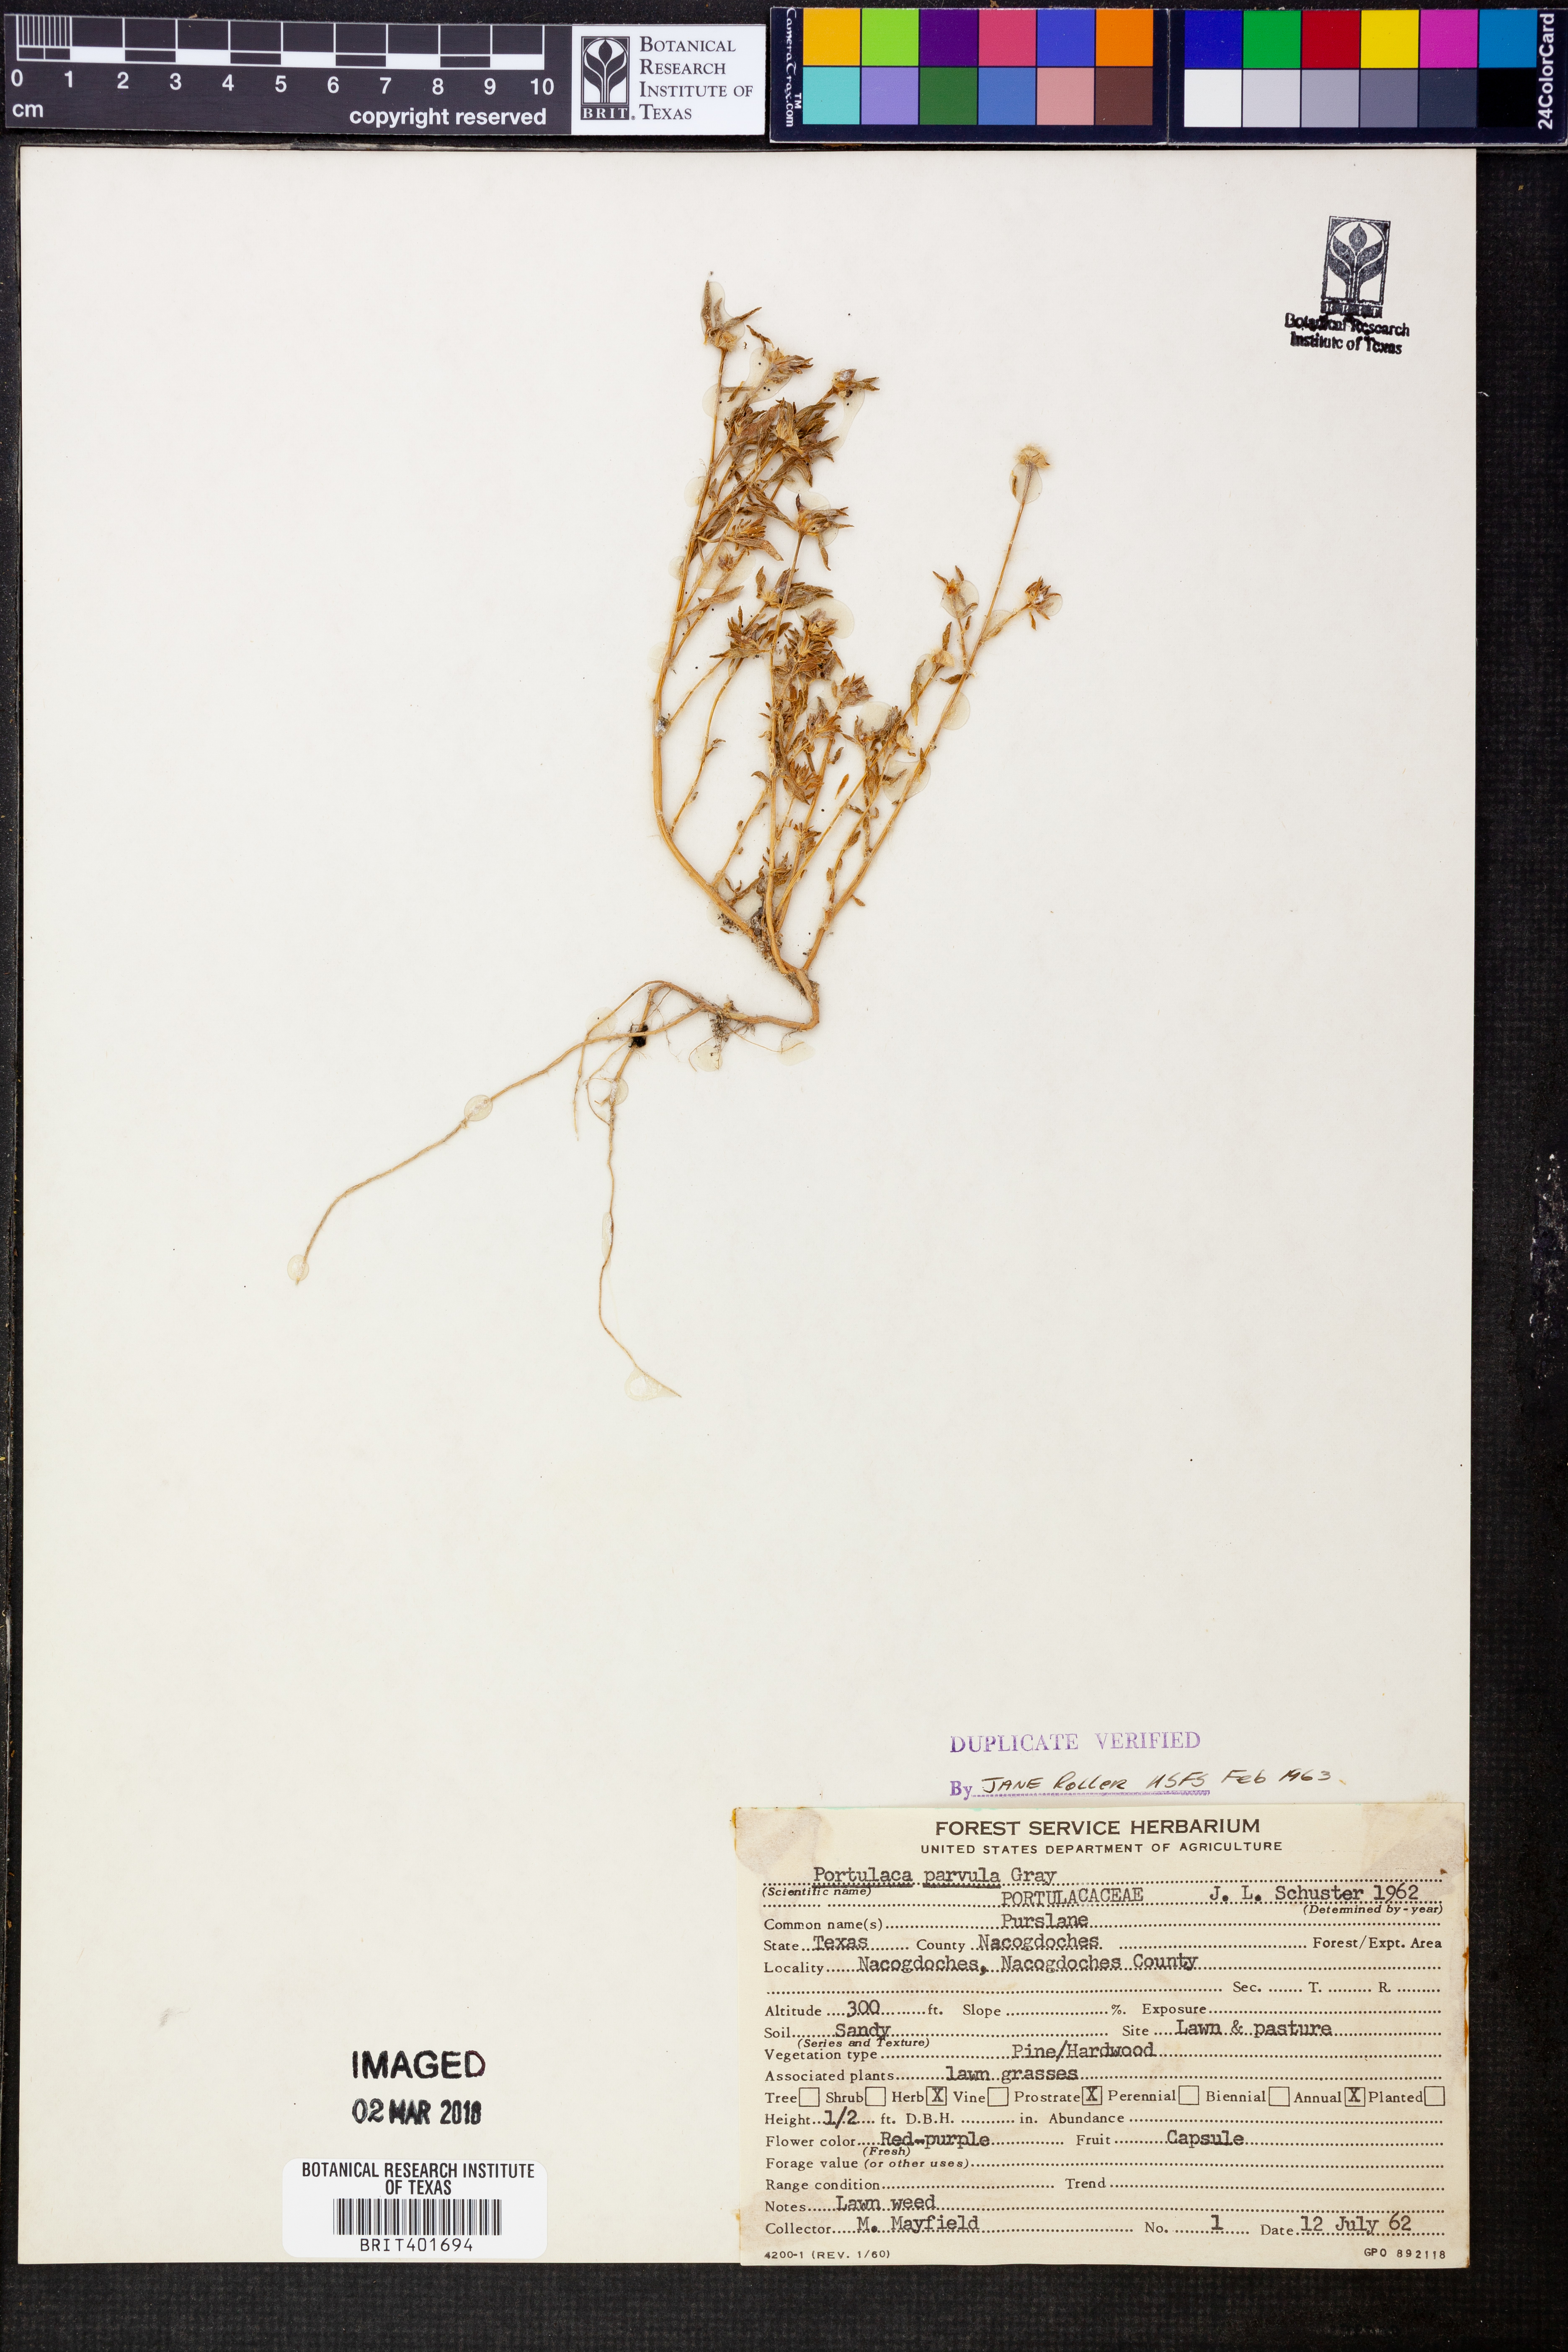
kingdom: Plantae
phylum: Tracheophyta
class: Magnoliopsida
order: Caryophyllales
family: Portulacaceae
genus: Portulaca
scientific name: Portulaca halimoides
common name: Silk cotton purslane
